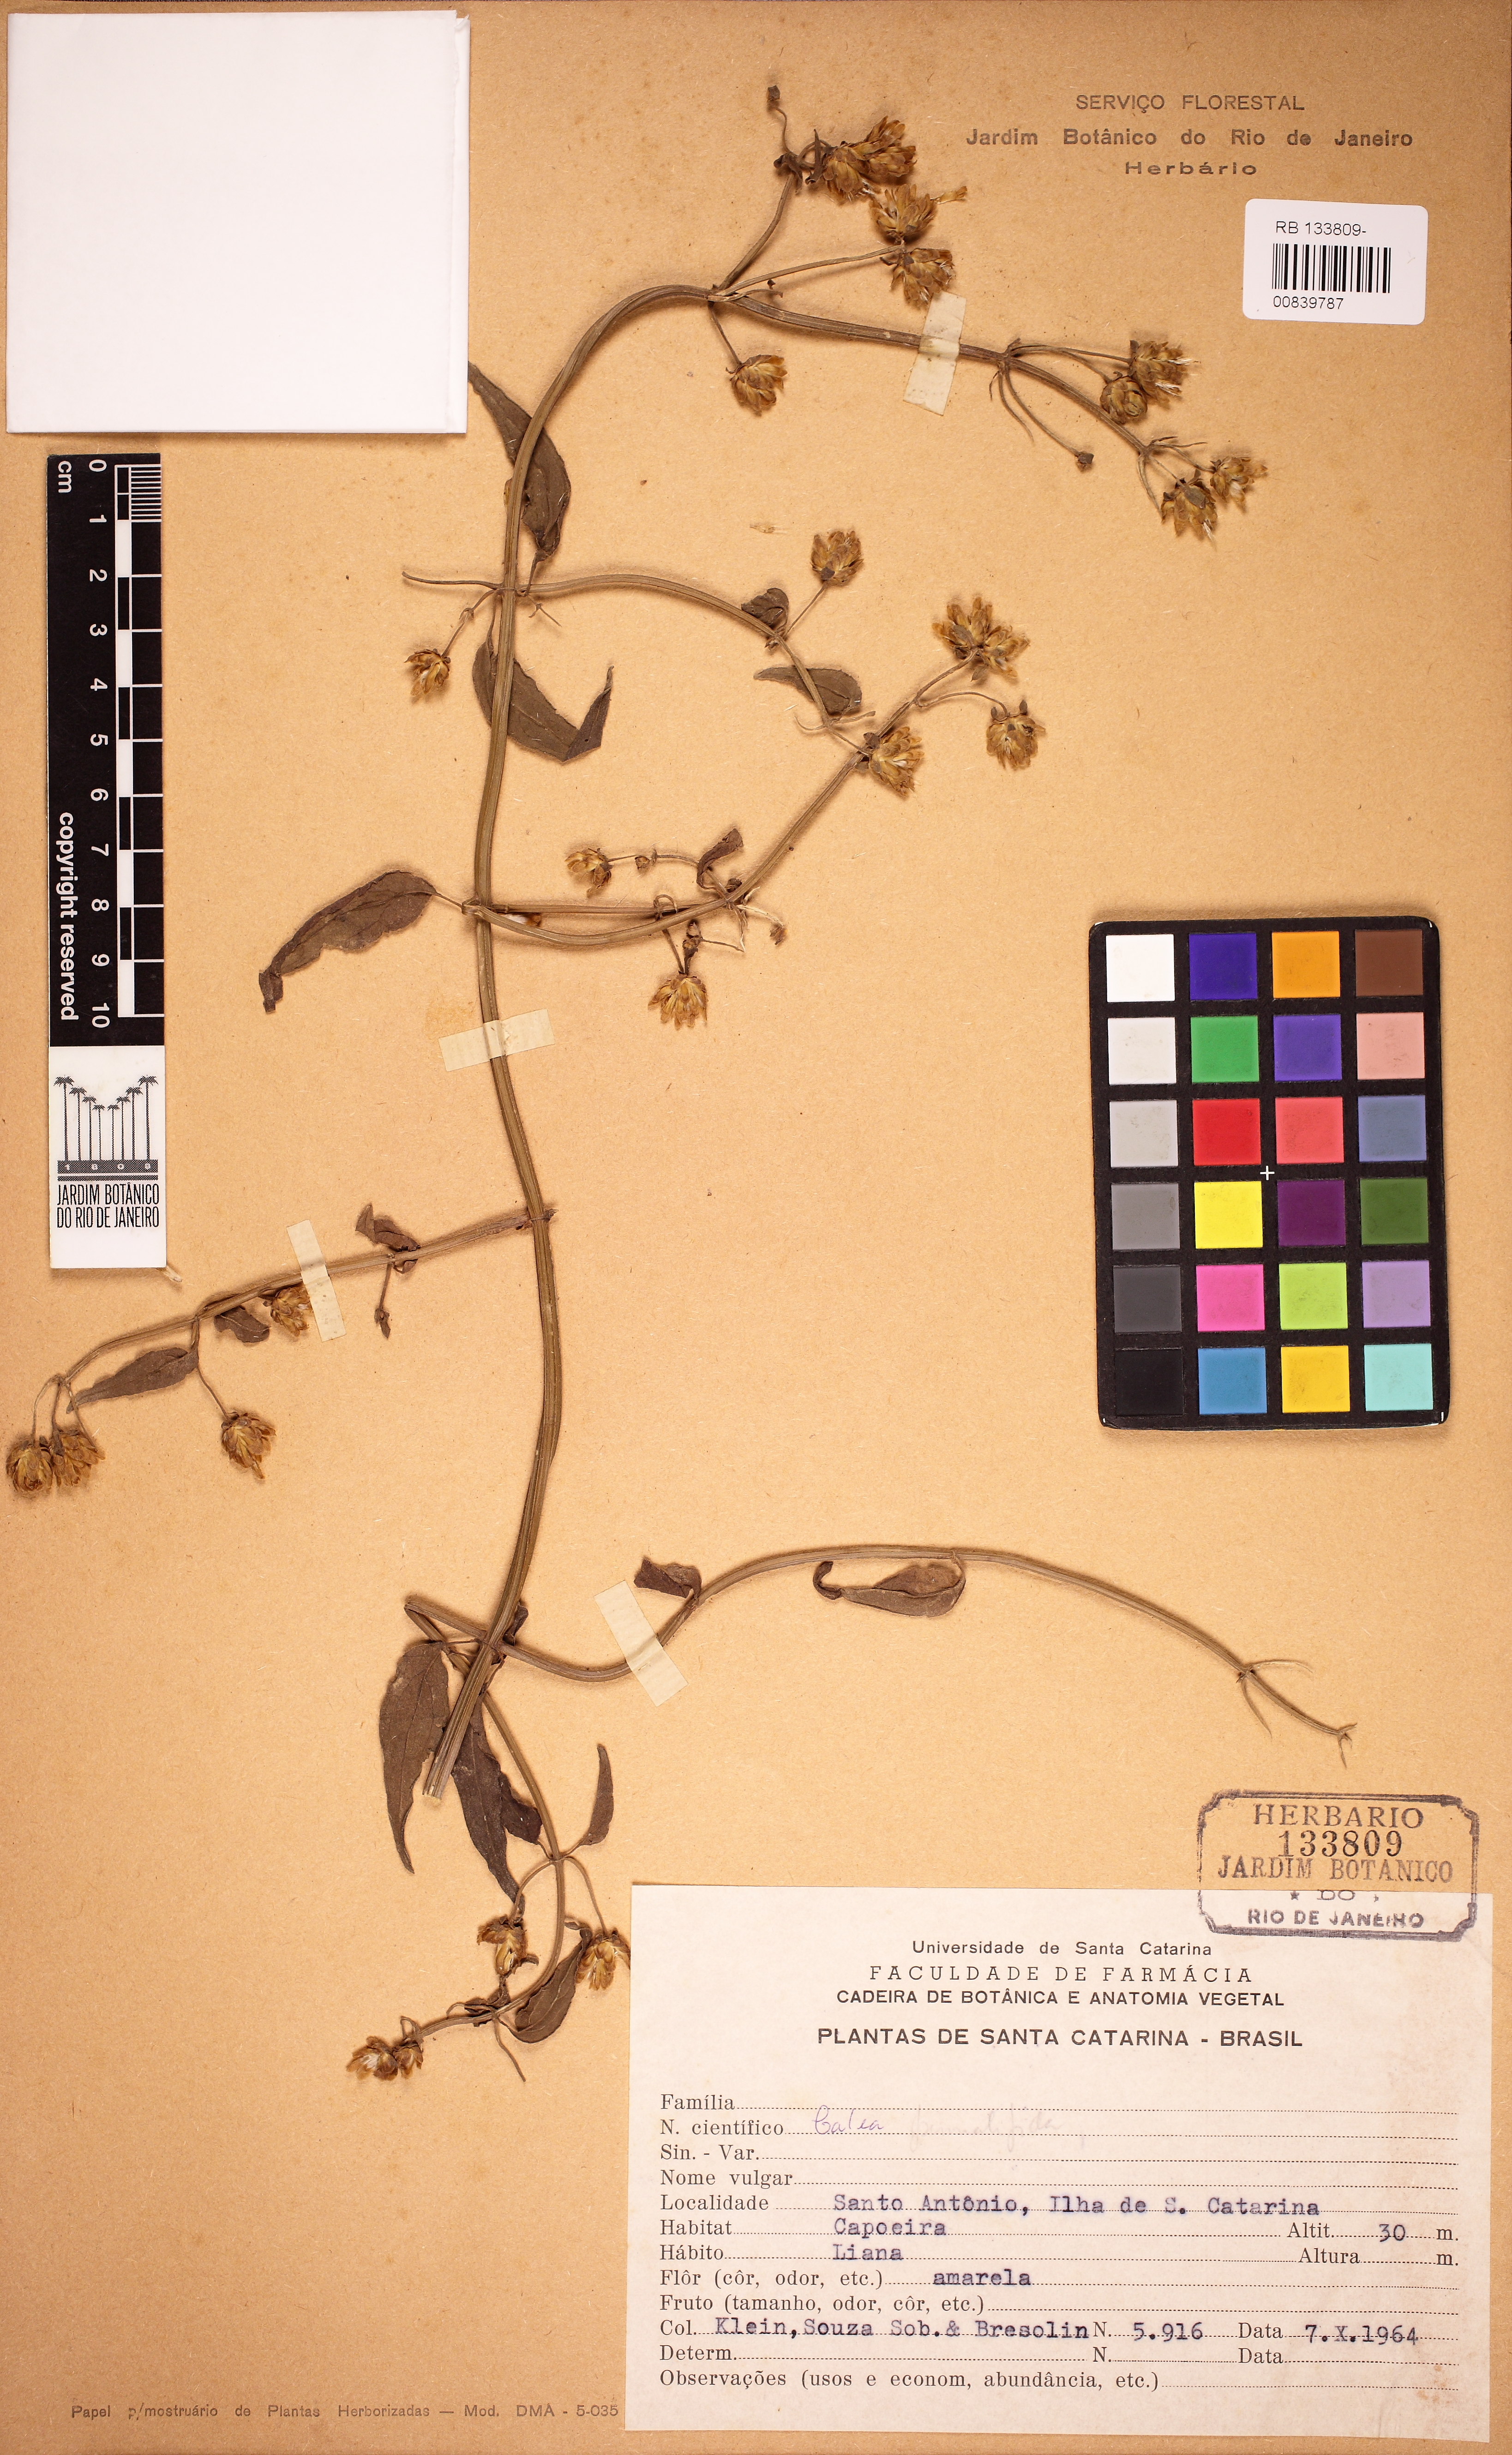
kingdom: Plantae
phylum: Tracheophyta
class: Magnoliopsida
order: Asterales
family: Asteraceae
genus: Calea
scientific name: Calea pinnatifida
